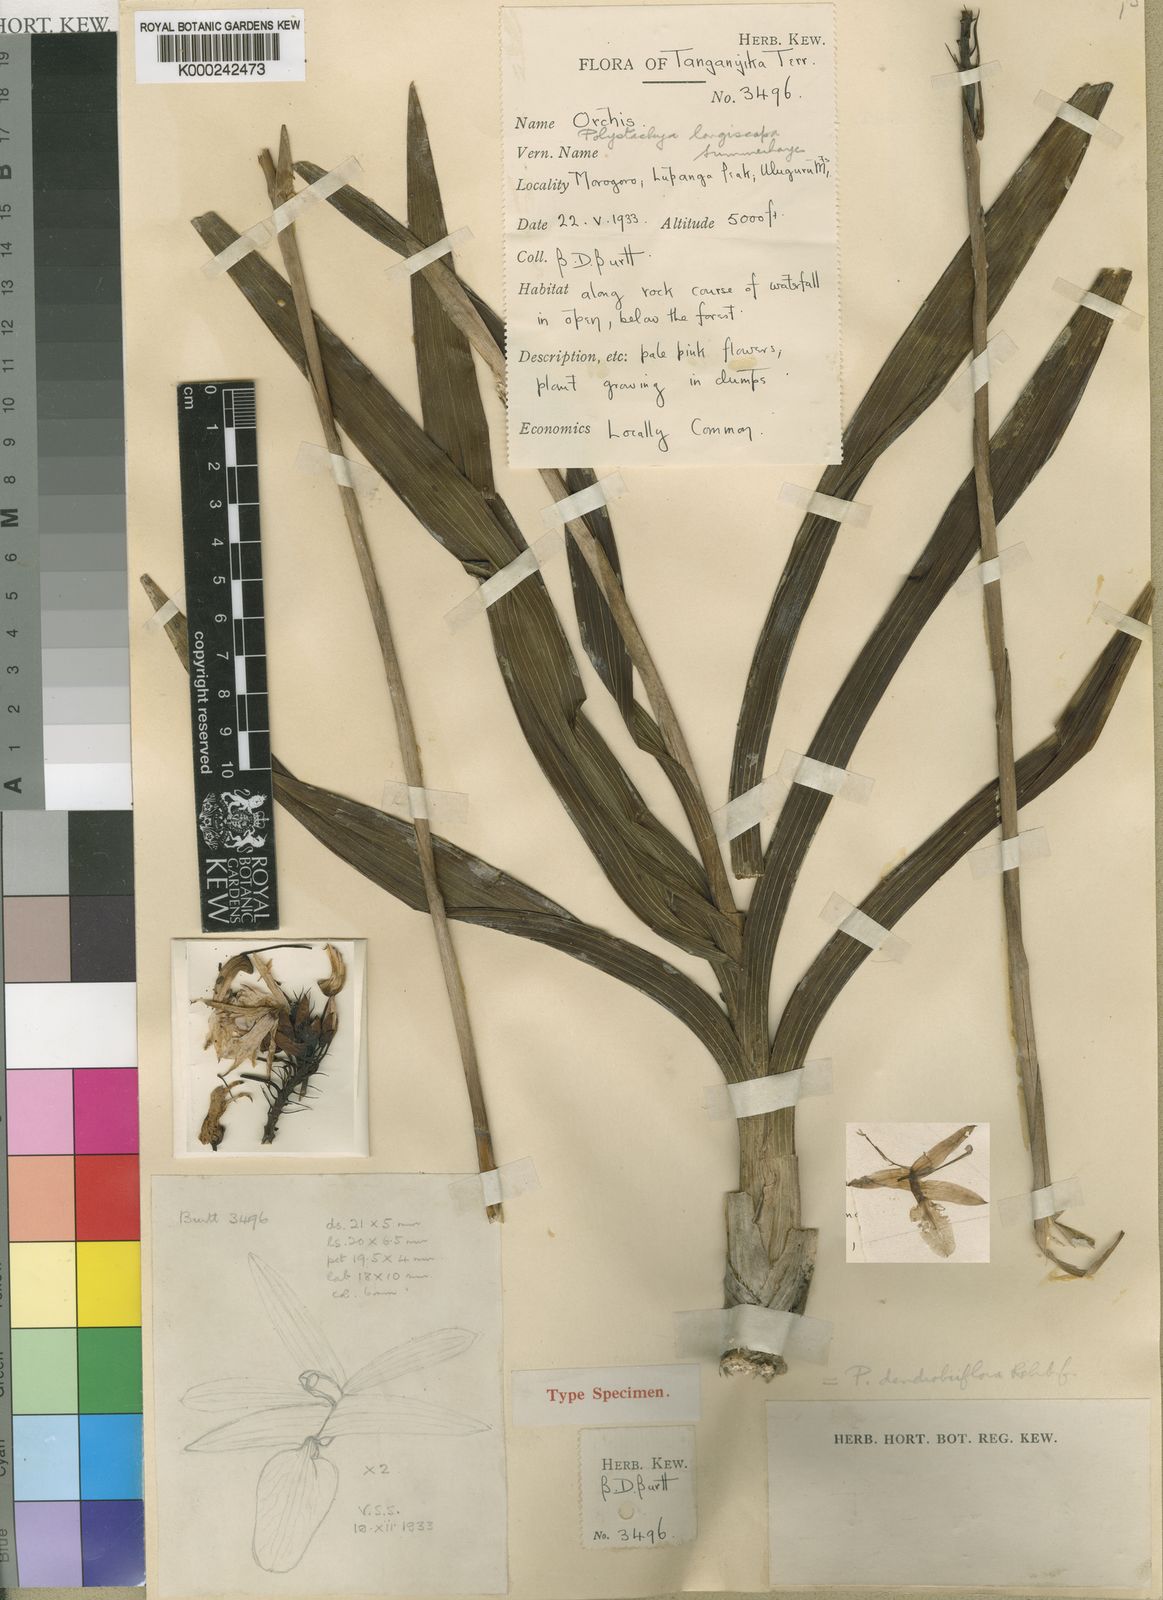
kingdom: Plantae
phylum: Tracheophyta
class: Liliopsida
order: Asparagales
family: Orchidaceae
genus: Polystachya
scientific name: Polystachya longiscapa
